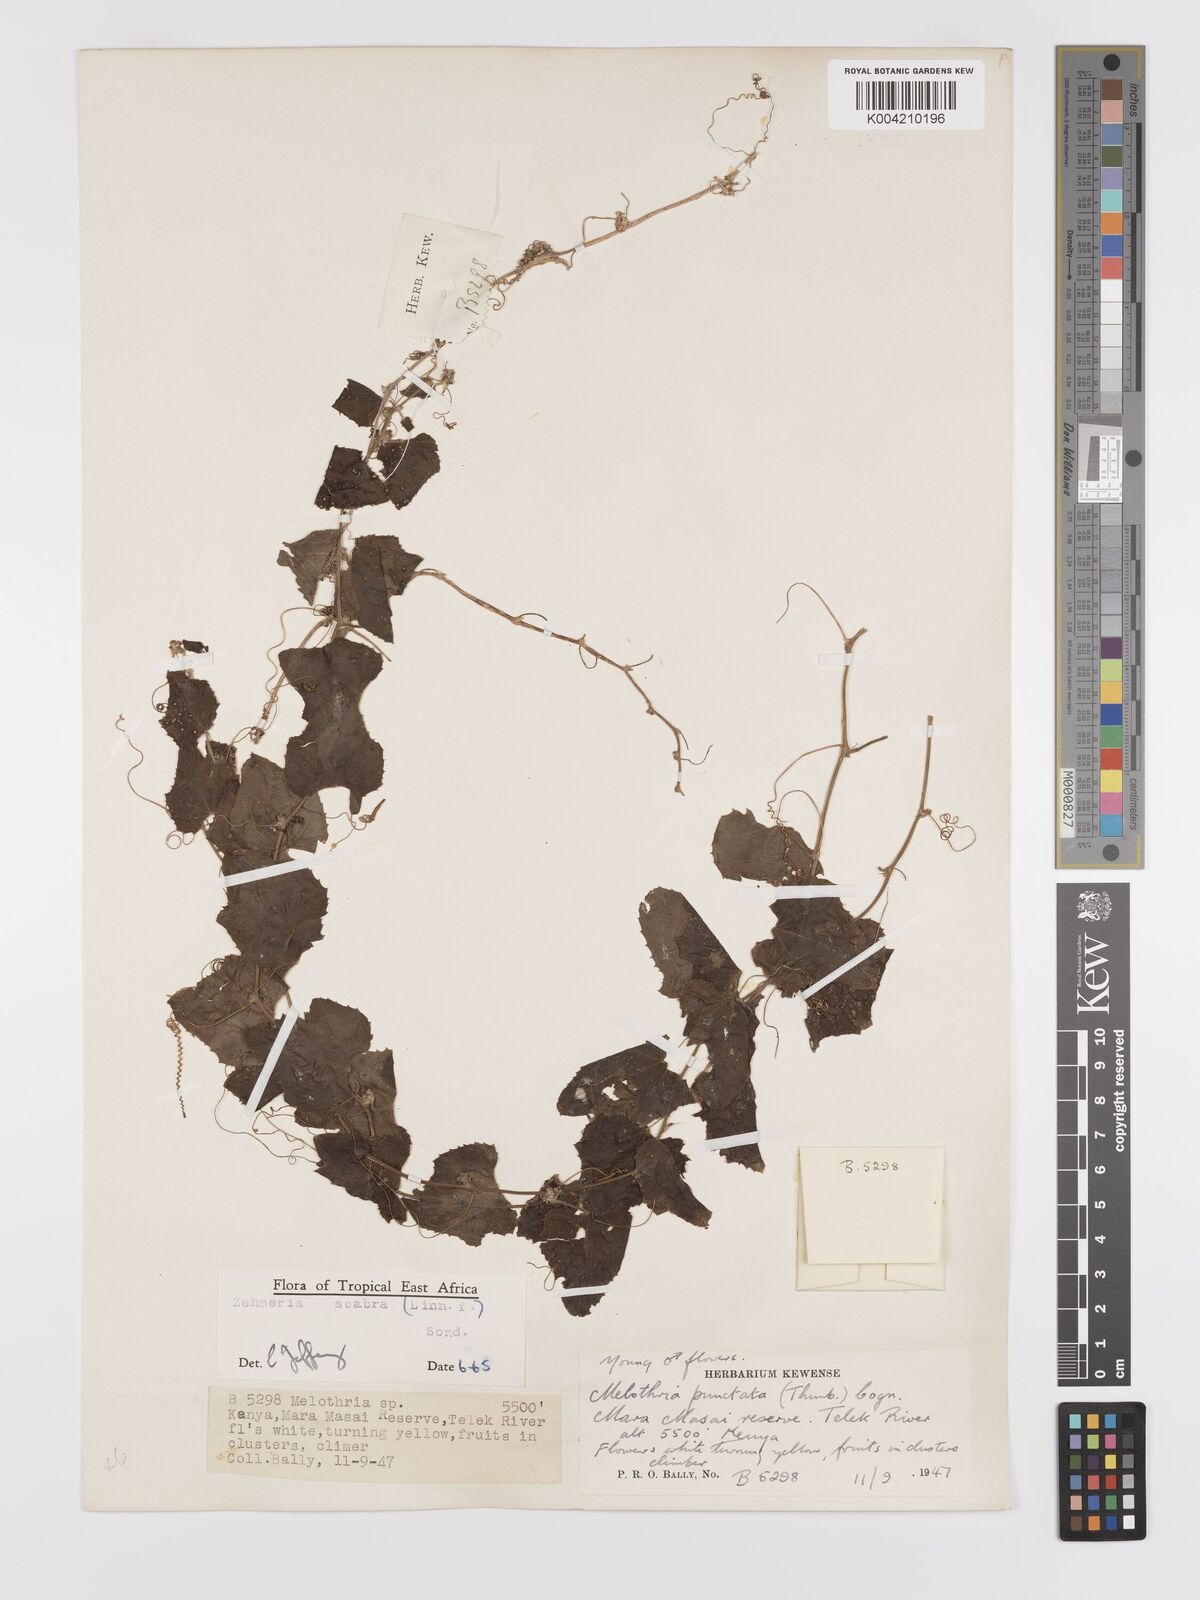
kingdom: Plantae
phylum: Tracheophyta
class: Magnoliopsida
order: Cucurbitales
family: Cucurbitaceae
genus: Zehneria
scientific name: Zehneria scabra
